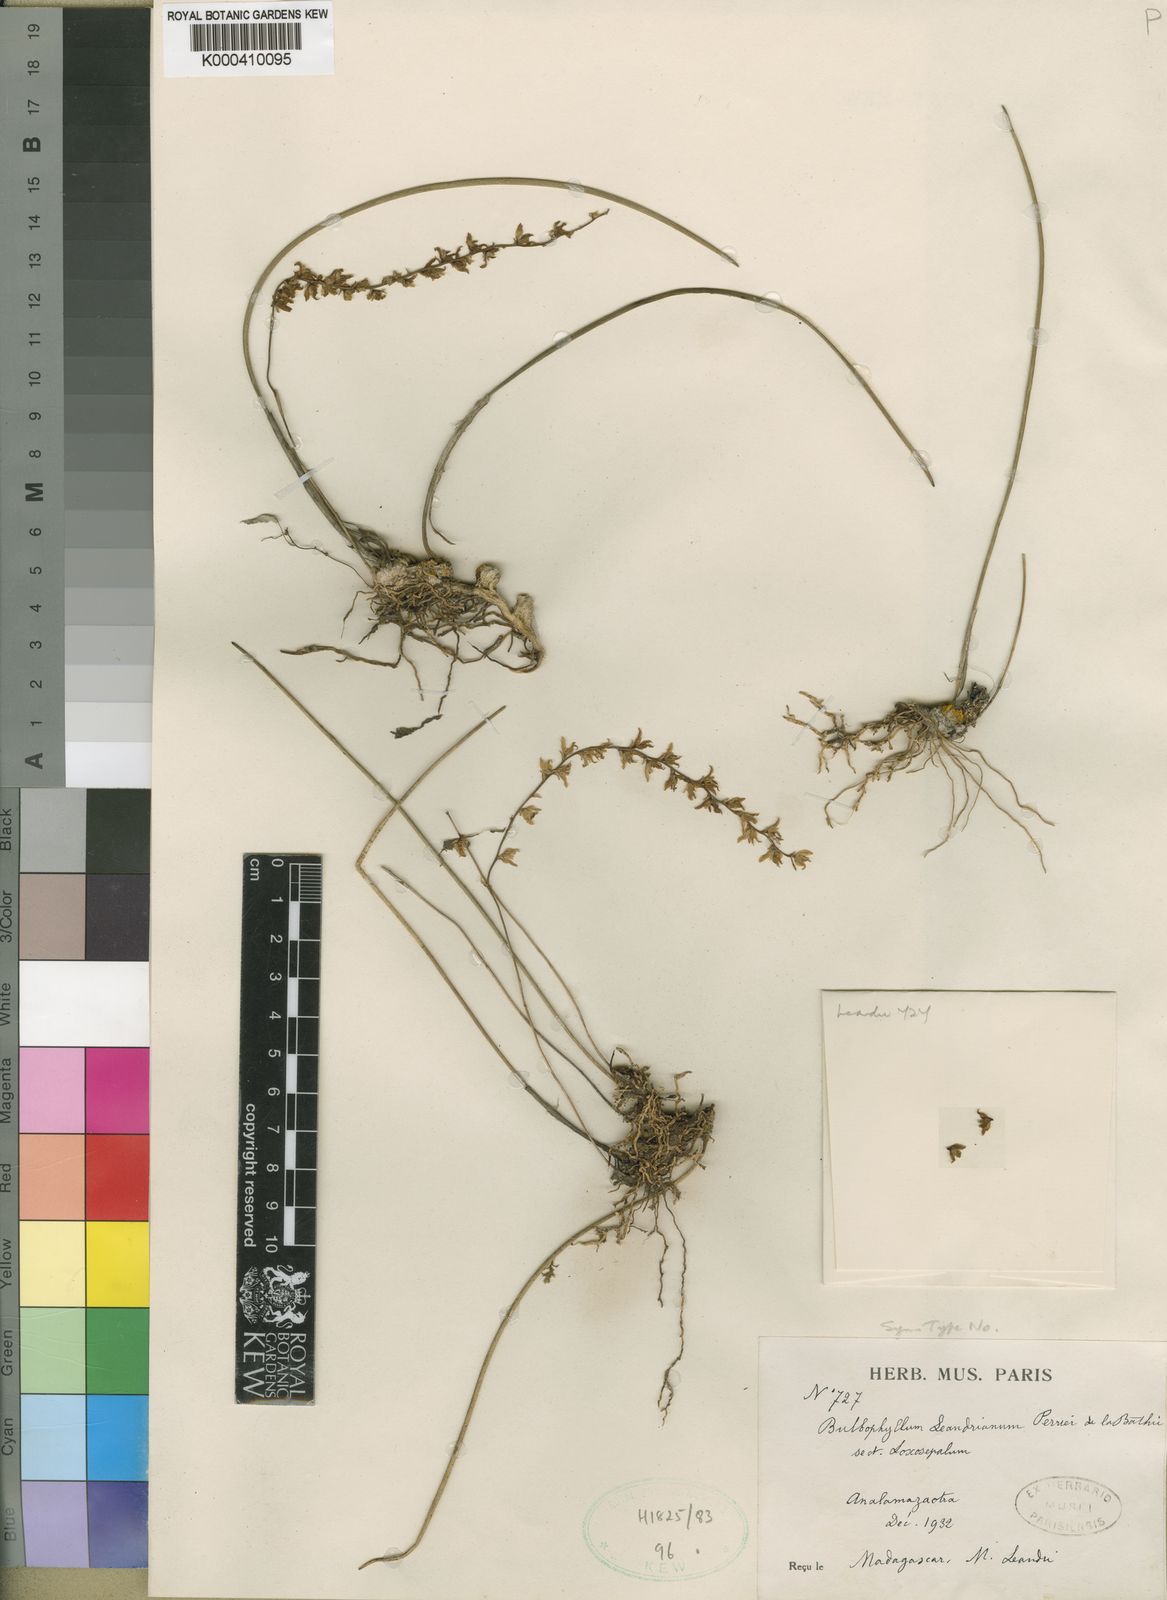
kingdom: Plantae
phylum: Tracheophyta
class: Liliopsida
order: Asparagales
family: Orchidaceae
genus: Bulbophyllum
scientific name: Bulbophyllum leandrianum
